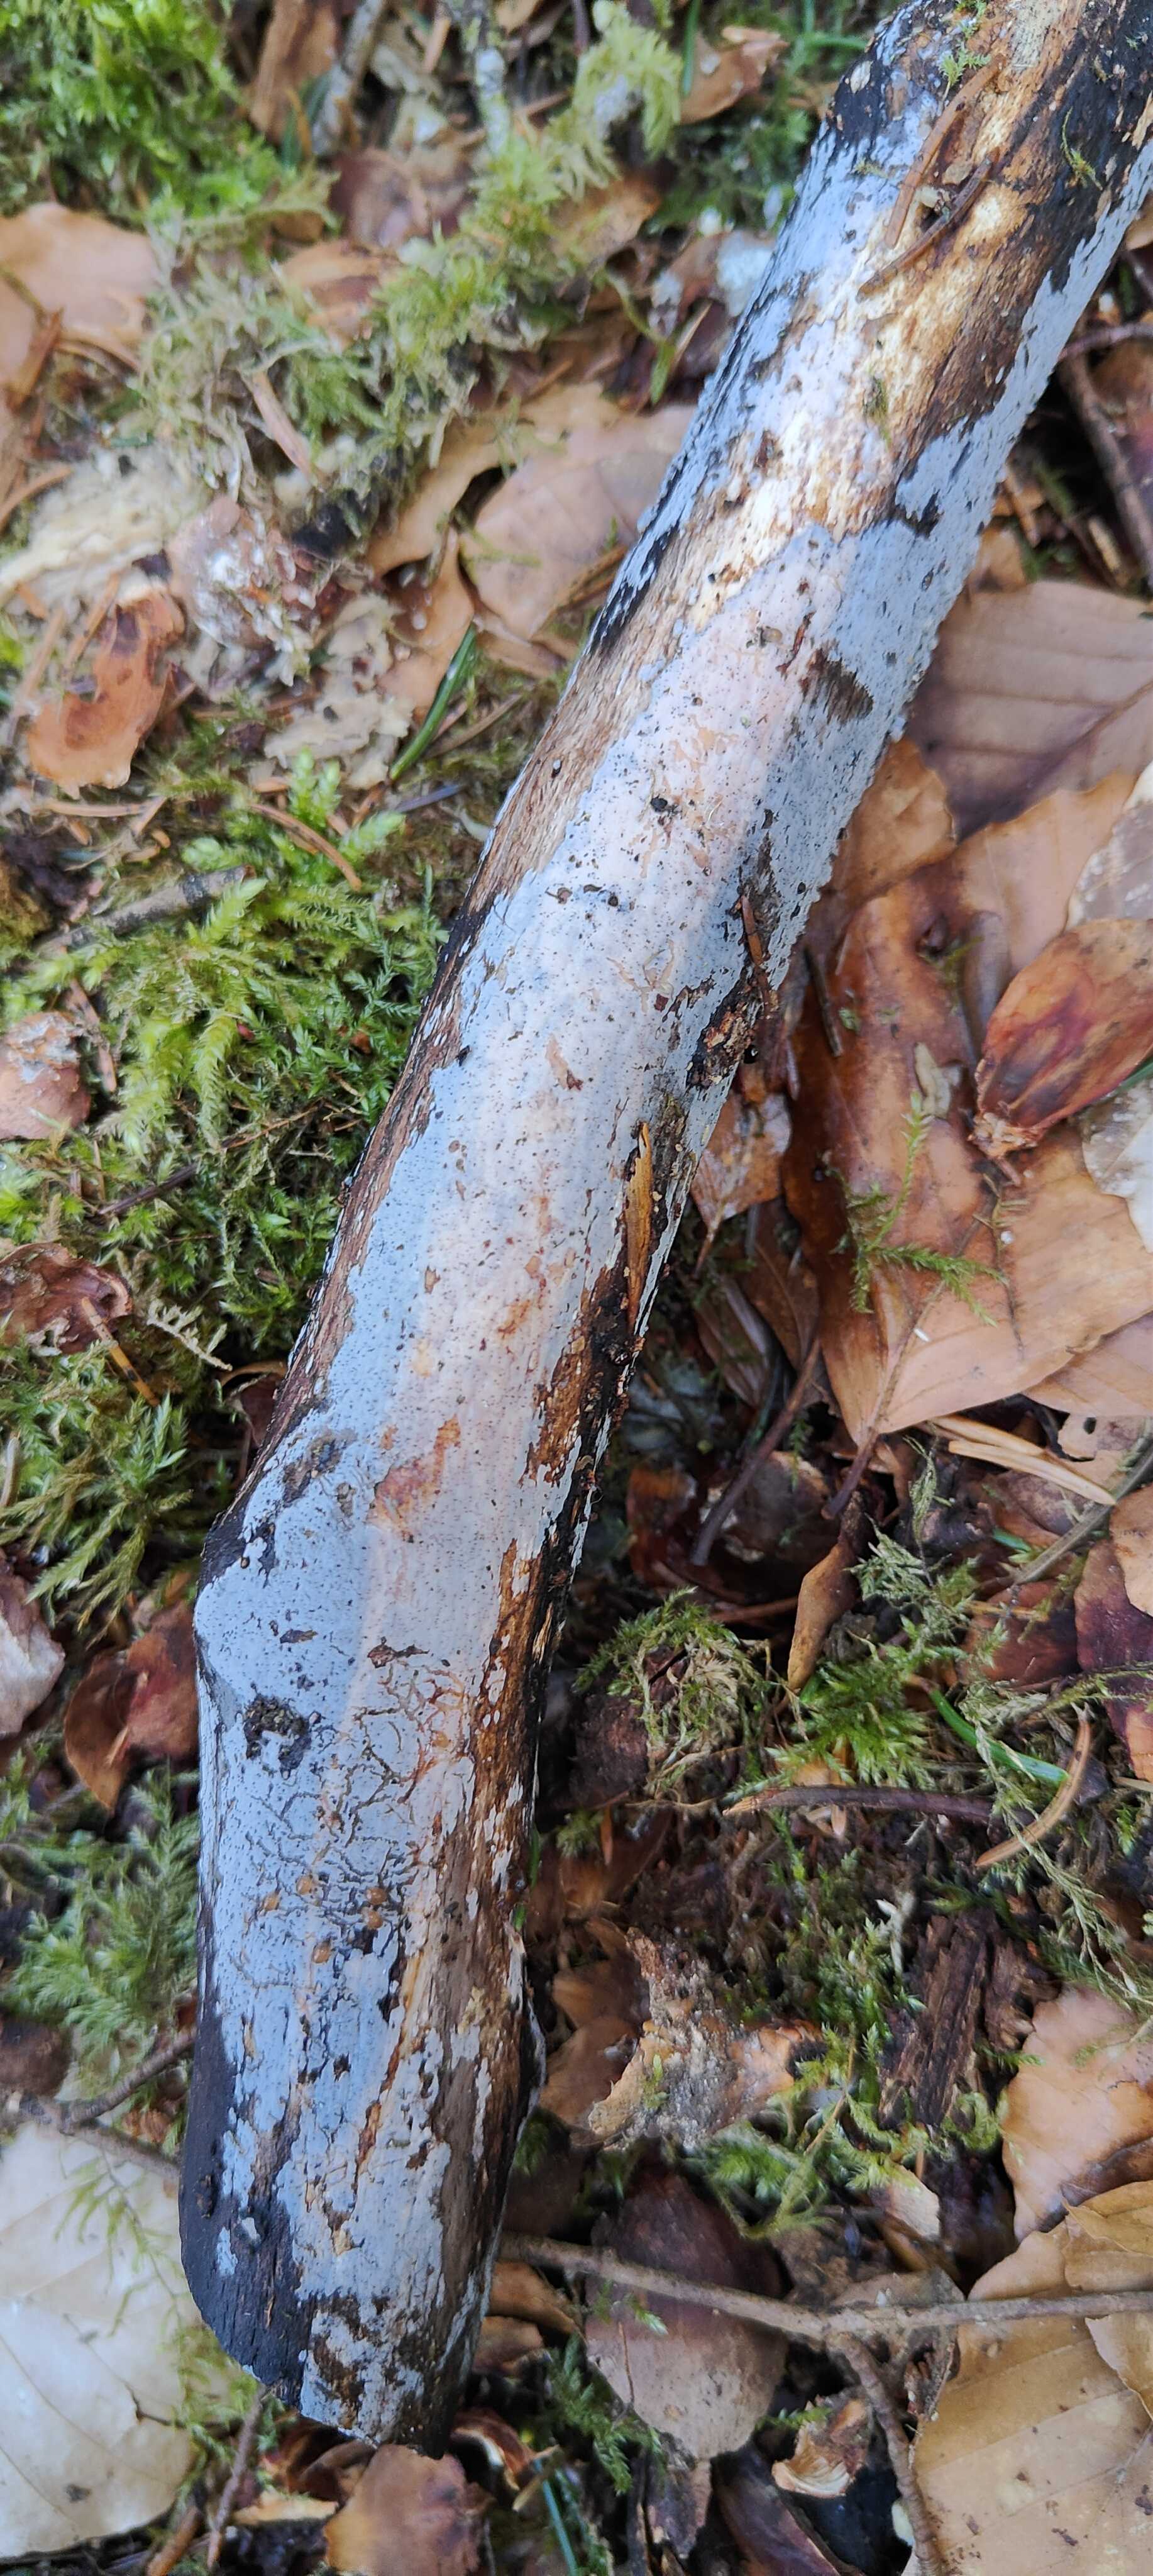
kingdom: Fungi
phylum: Basidiomycota
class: Tremellomycetes
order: Tremellales
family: Exidiaceae
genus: Exidiopsis
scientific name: Exidiopsis effusa
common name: smuk bævrehinde
